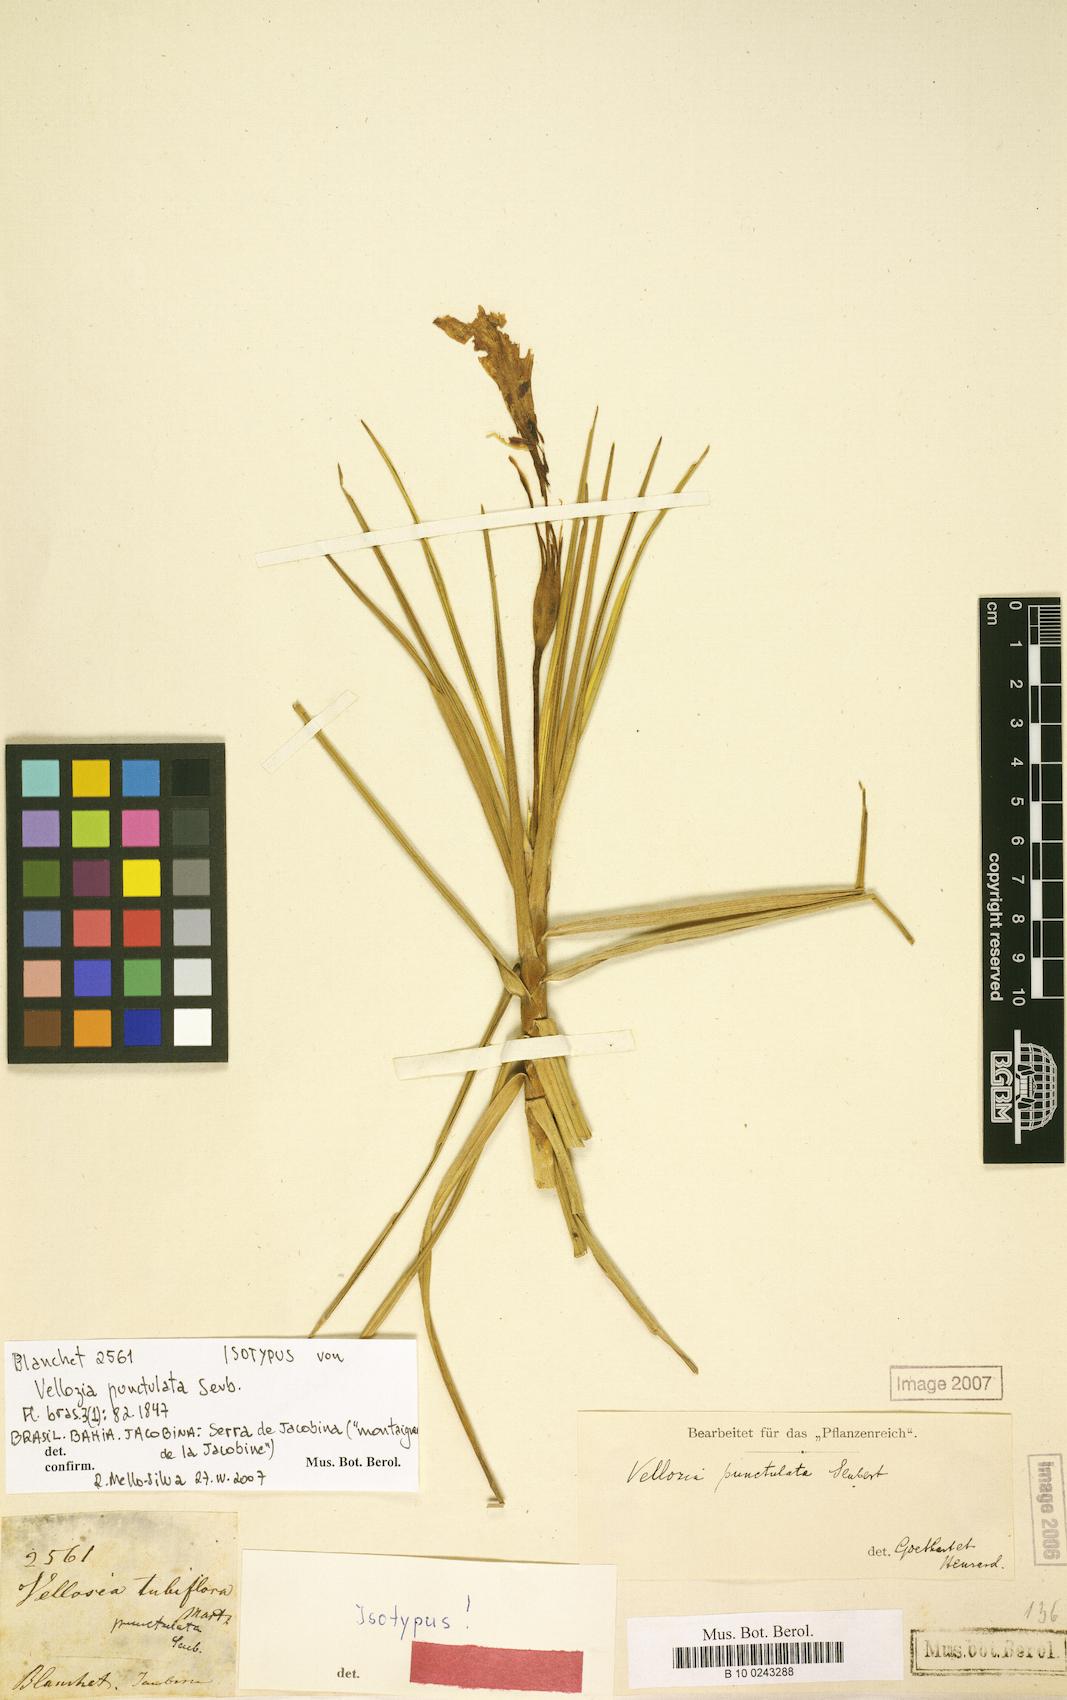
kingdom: Plantae
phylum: Tracheophyta
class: Liliopsida
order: Pandanales
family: Velloziaceae
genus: Vellozia
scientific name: Vellozia punctulata
